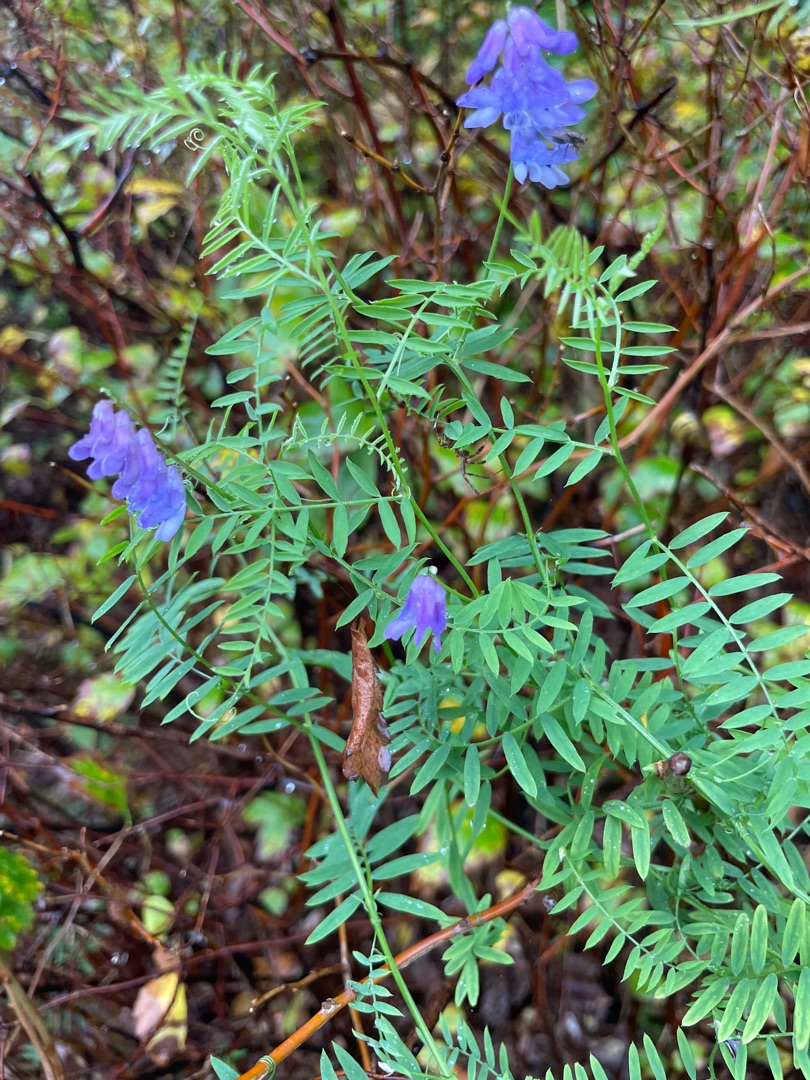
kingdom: Plantae
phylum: Tracheophyta
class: Magnoliopsida
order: Fabales
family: Fabaceae
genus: Vicia
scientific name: Vicia cracca
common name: Muse-vikke
